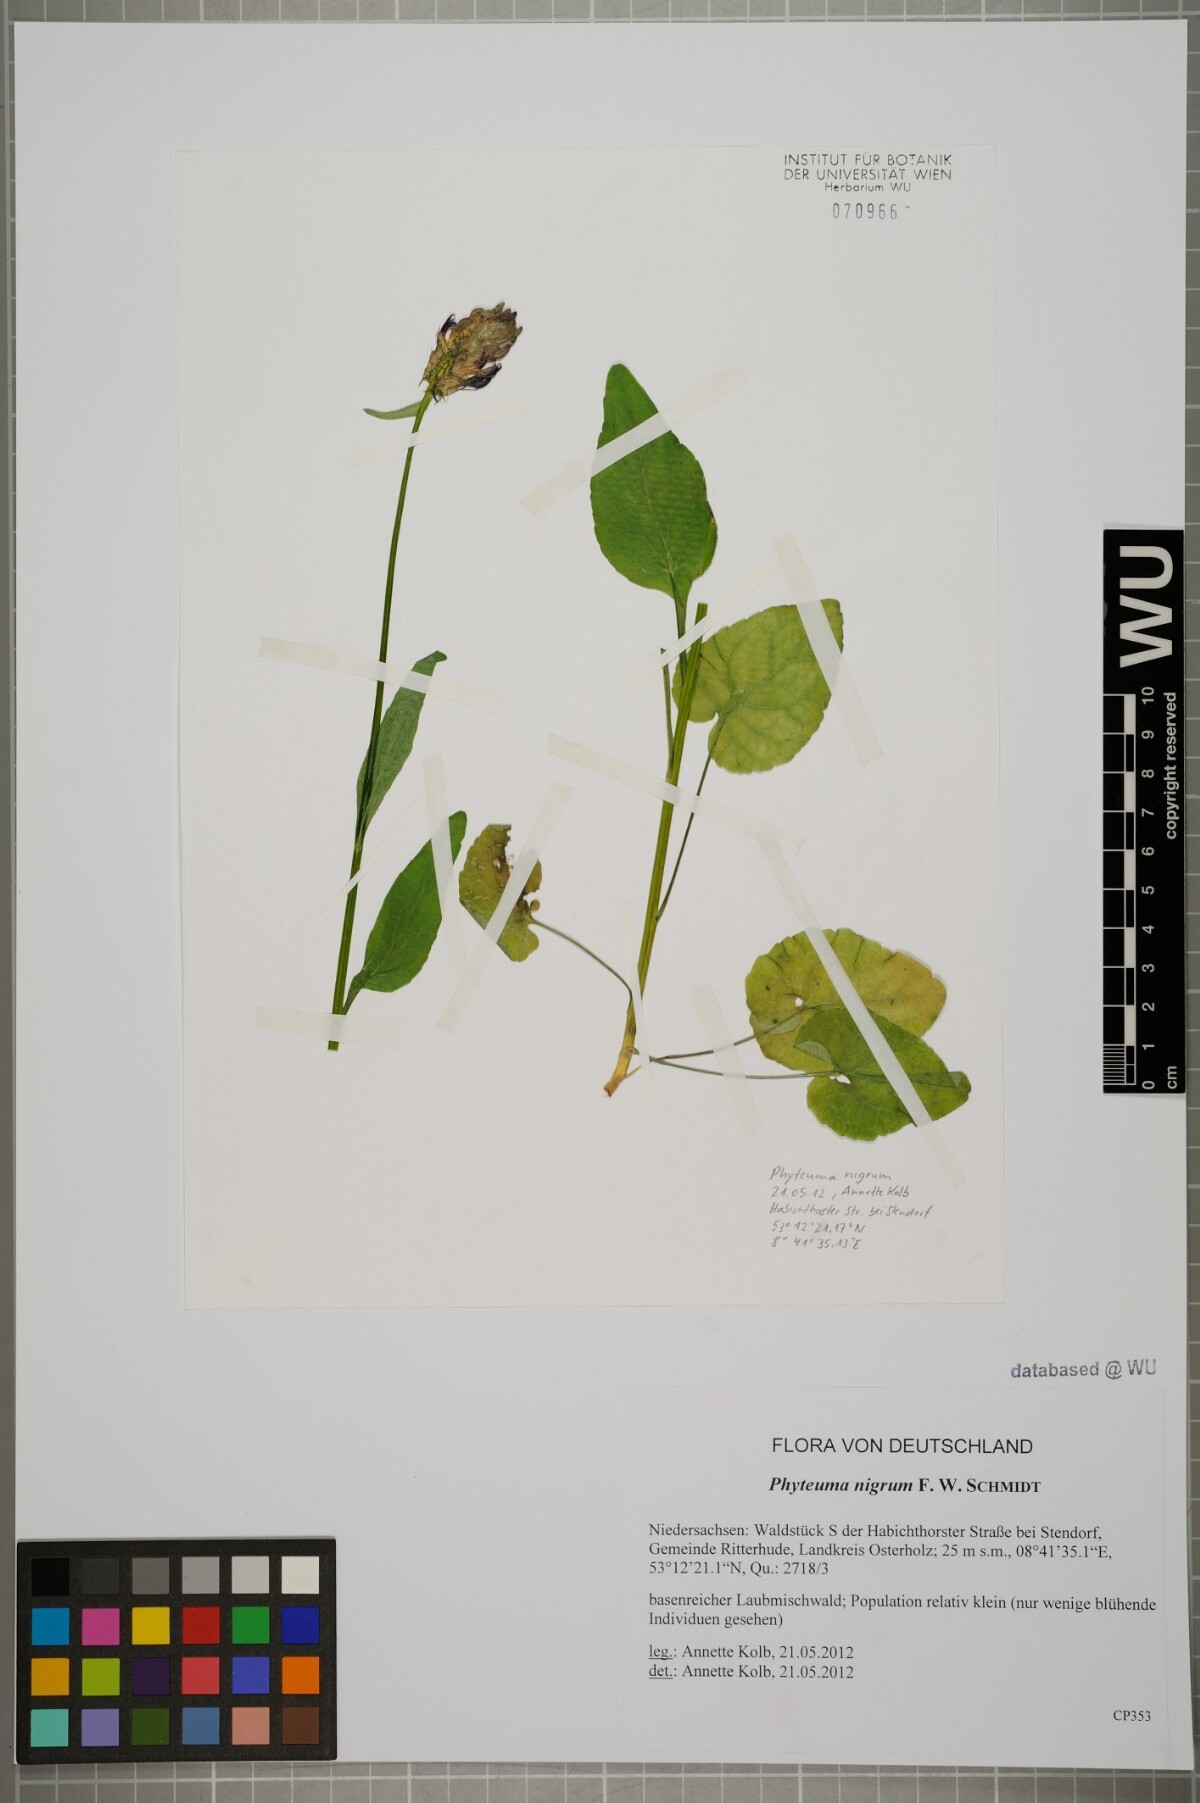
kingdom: Plantae
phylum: Tracheophyta
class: Magnoliopsida
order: Asterales
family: Campanulaceae
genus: Phyteuma
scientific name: Phyteuma nigrum
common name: Black rampion
